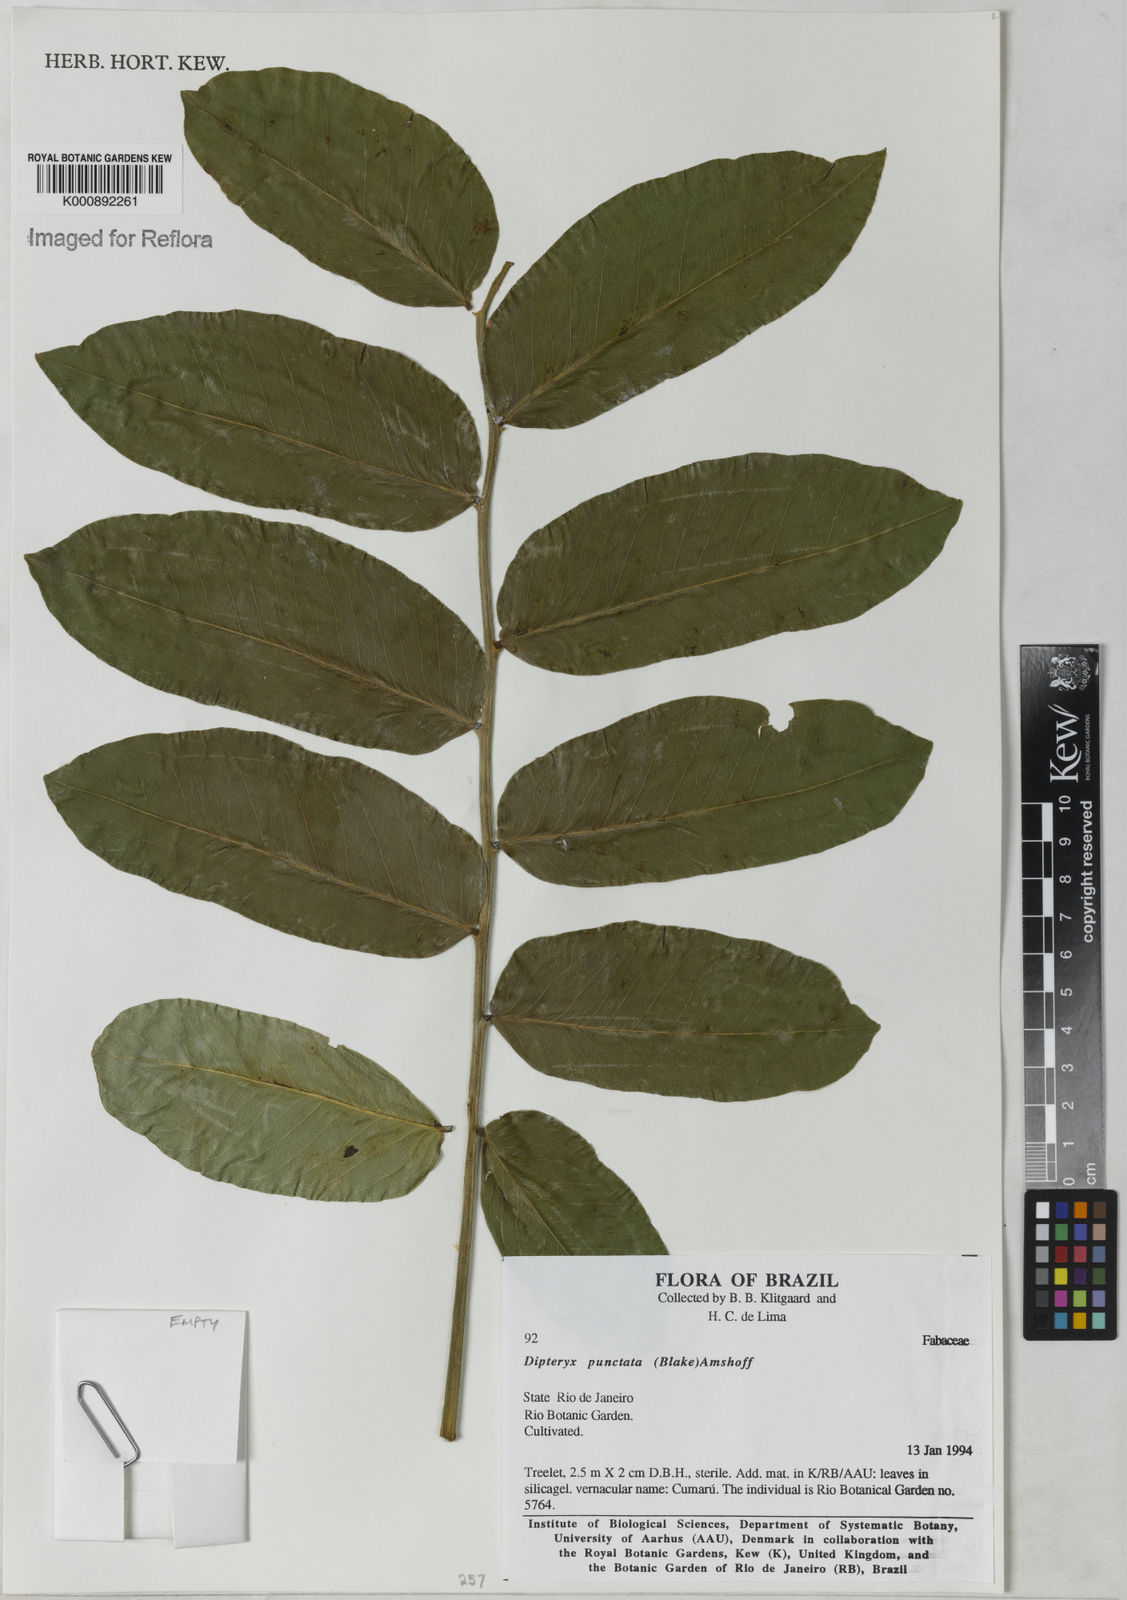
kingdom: Plantae
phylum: Tracheophyta
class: Magnoliopsida
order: Fabales
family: Fabaceae
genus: Dipteryx
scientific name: Dipteryx punctata
